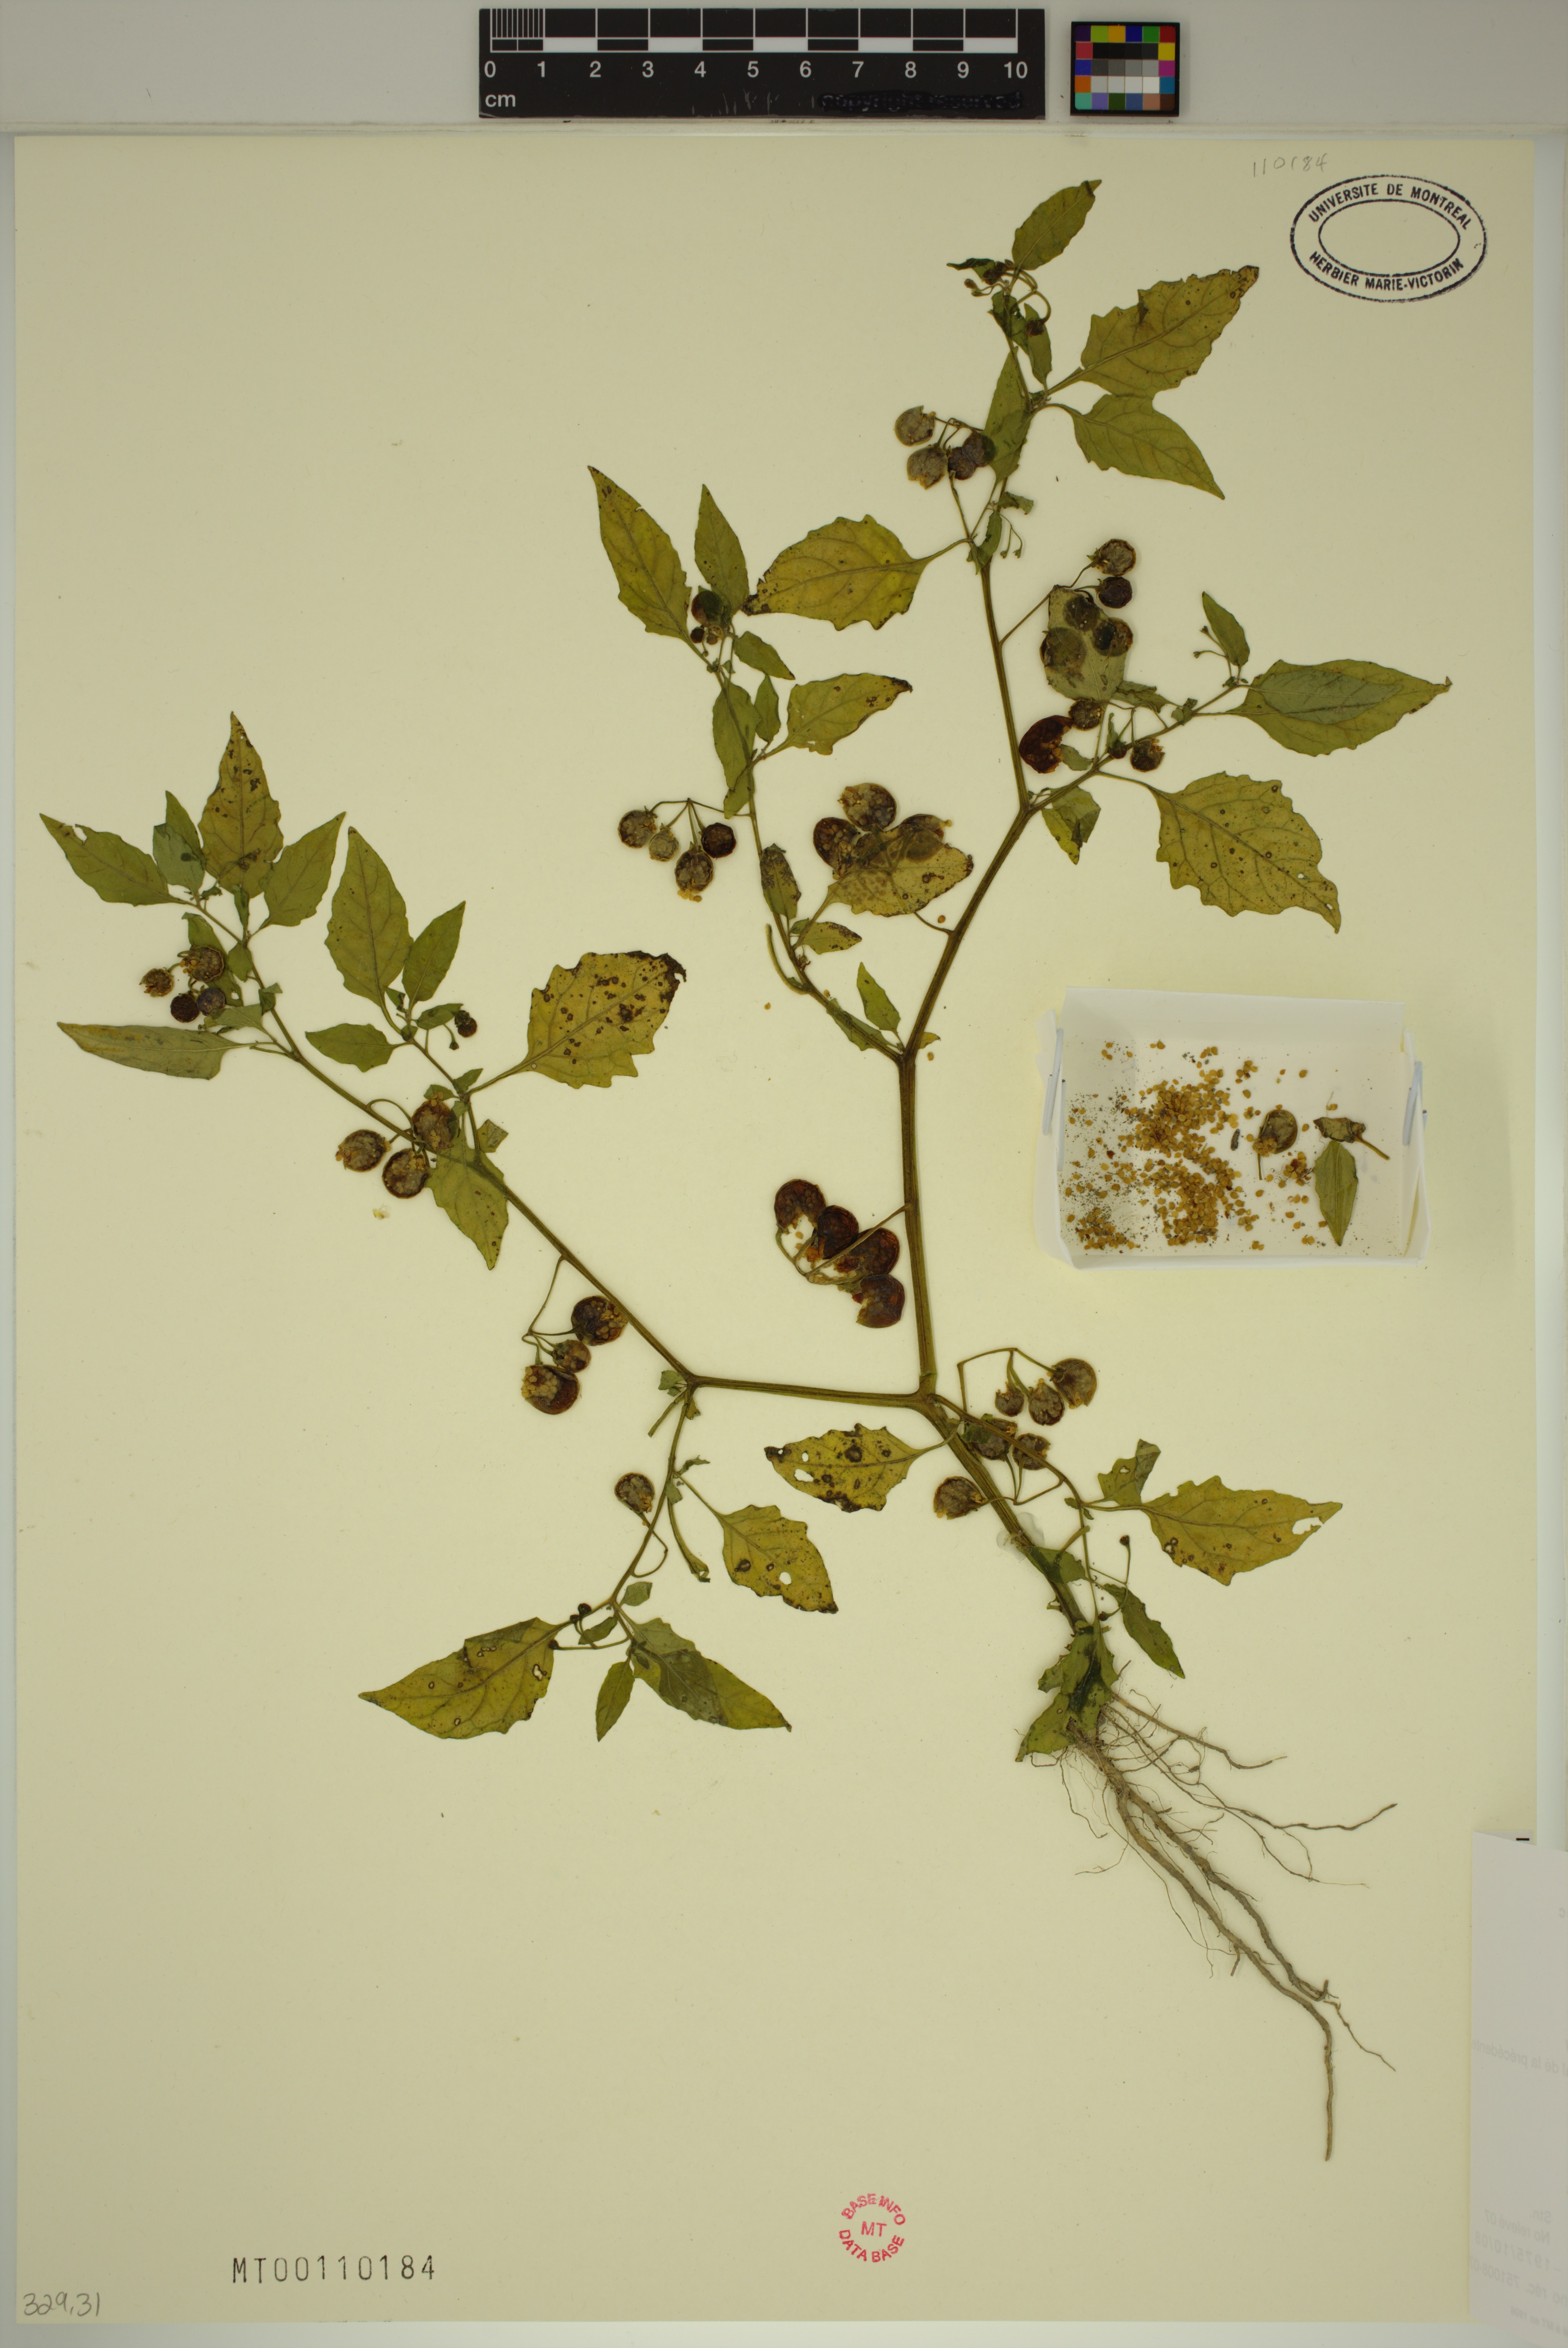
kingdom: Plantae
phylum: Tracheophyta
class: Magnoliopsida
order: Solanales
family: Solanaceae
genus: Solanum
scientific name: Solanum emulans
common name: Eastern black nightshade
